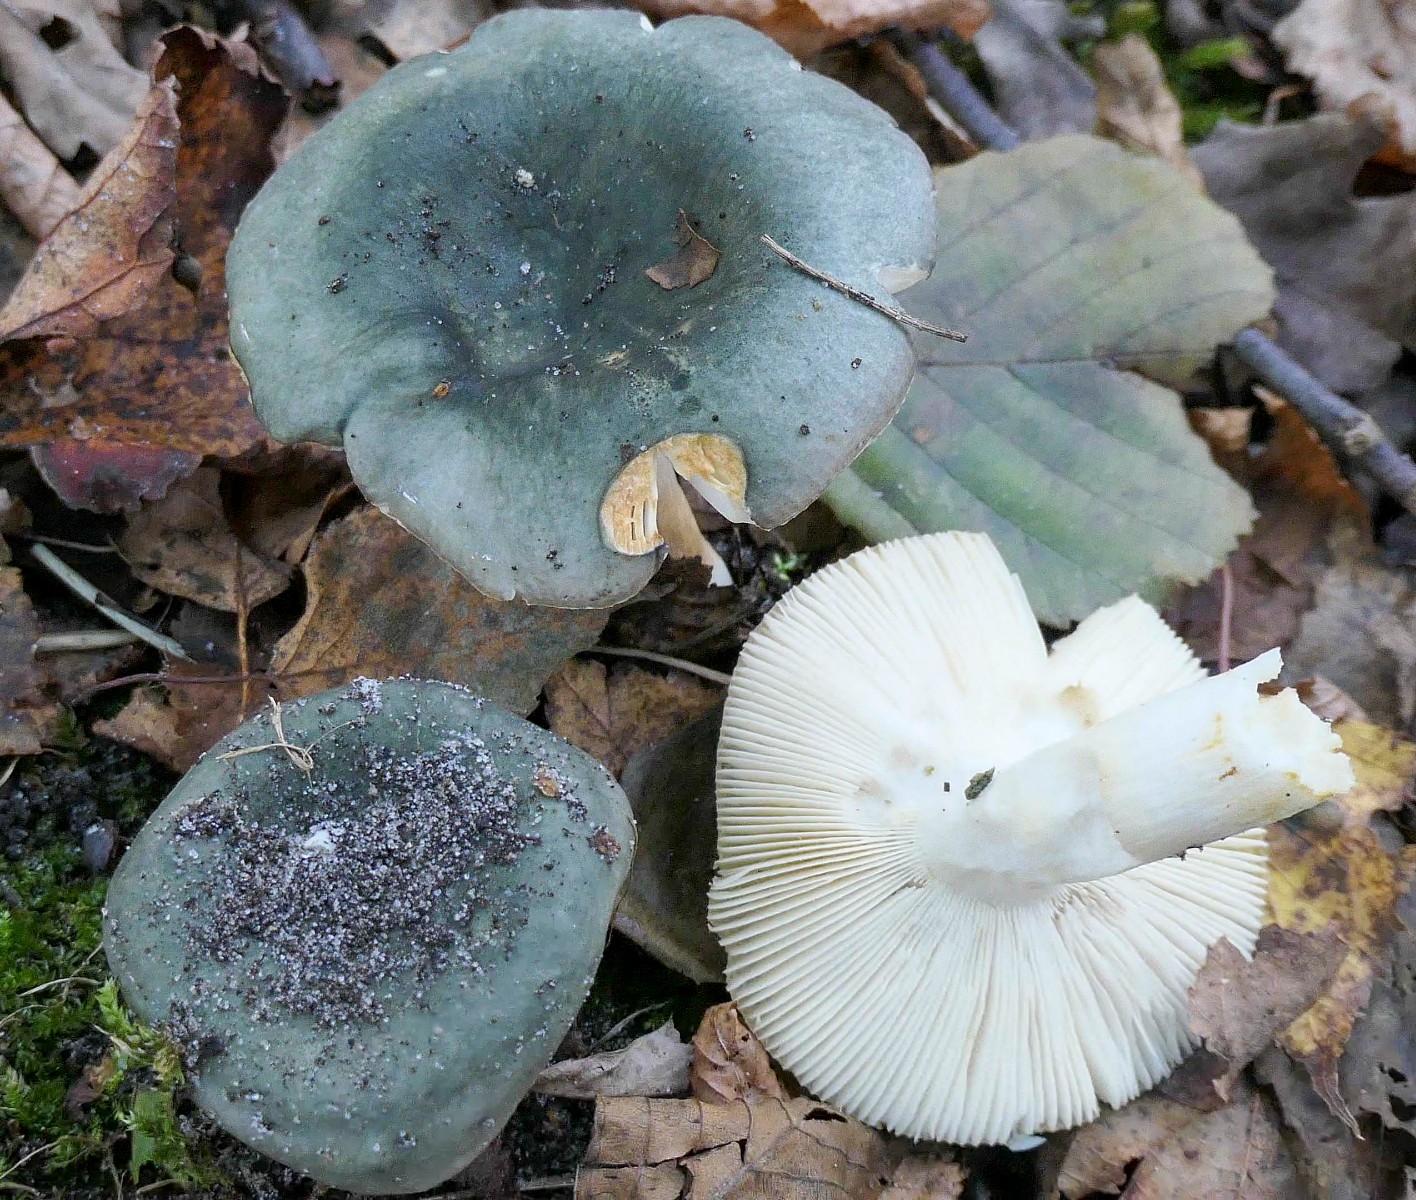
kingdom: Fungi
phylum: Basidiomycota
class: Agaricomycetes
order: Russulales
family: Russulaceae
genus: Russula
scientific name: Russula parazurea
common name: blågrå skørhat
